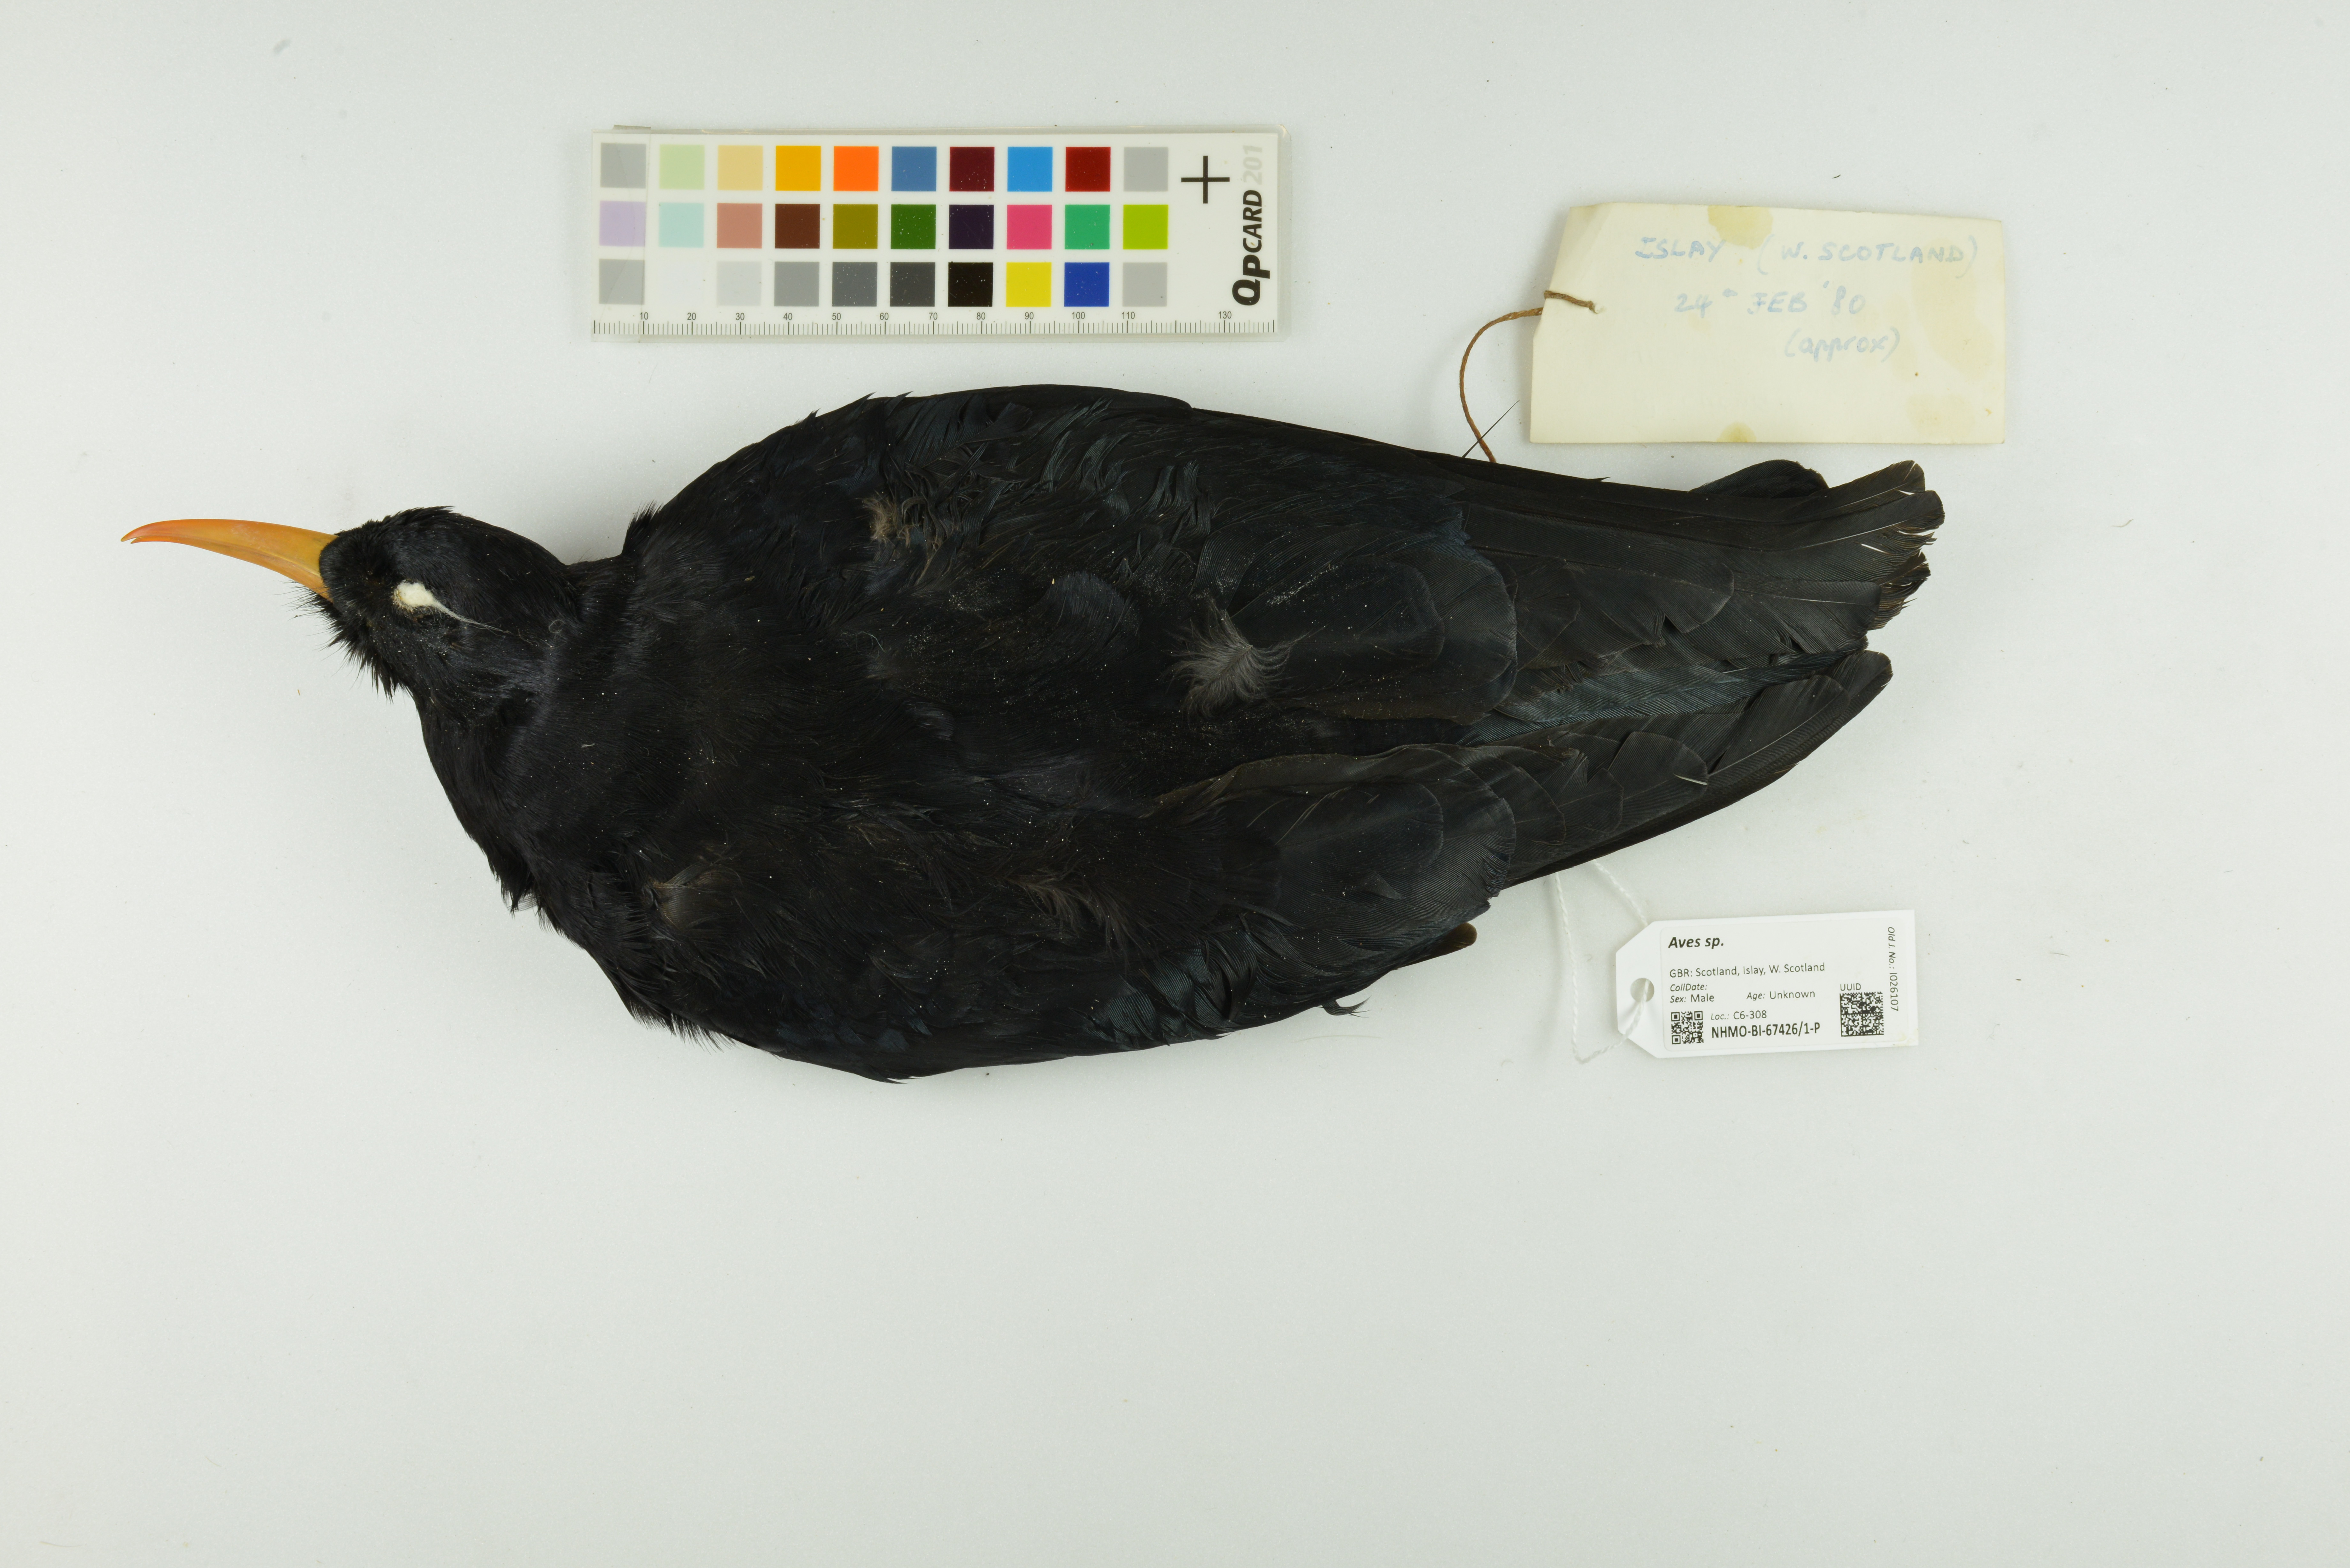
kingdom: Animalia
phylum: Chordata
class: Aves
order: Passeriformes
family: Corvidae
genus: Pyrrhocorax
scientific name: Pyrrhocorax pyrrhocorax
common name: Red-billed chough
